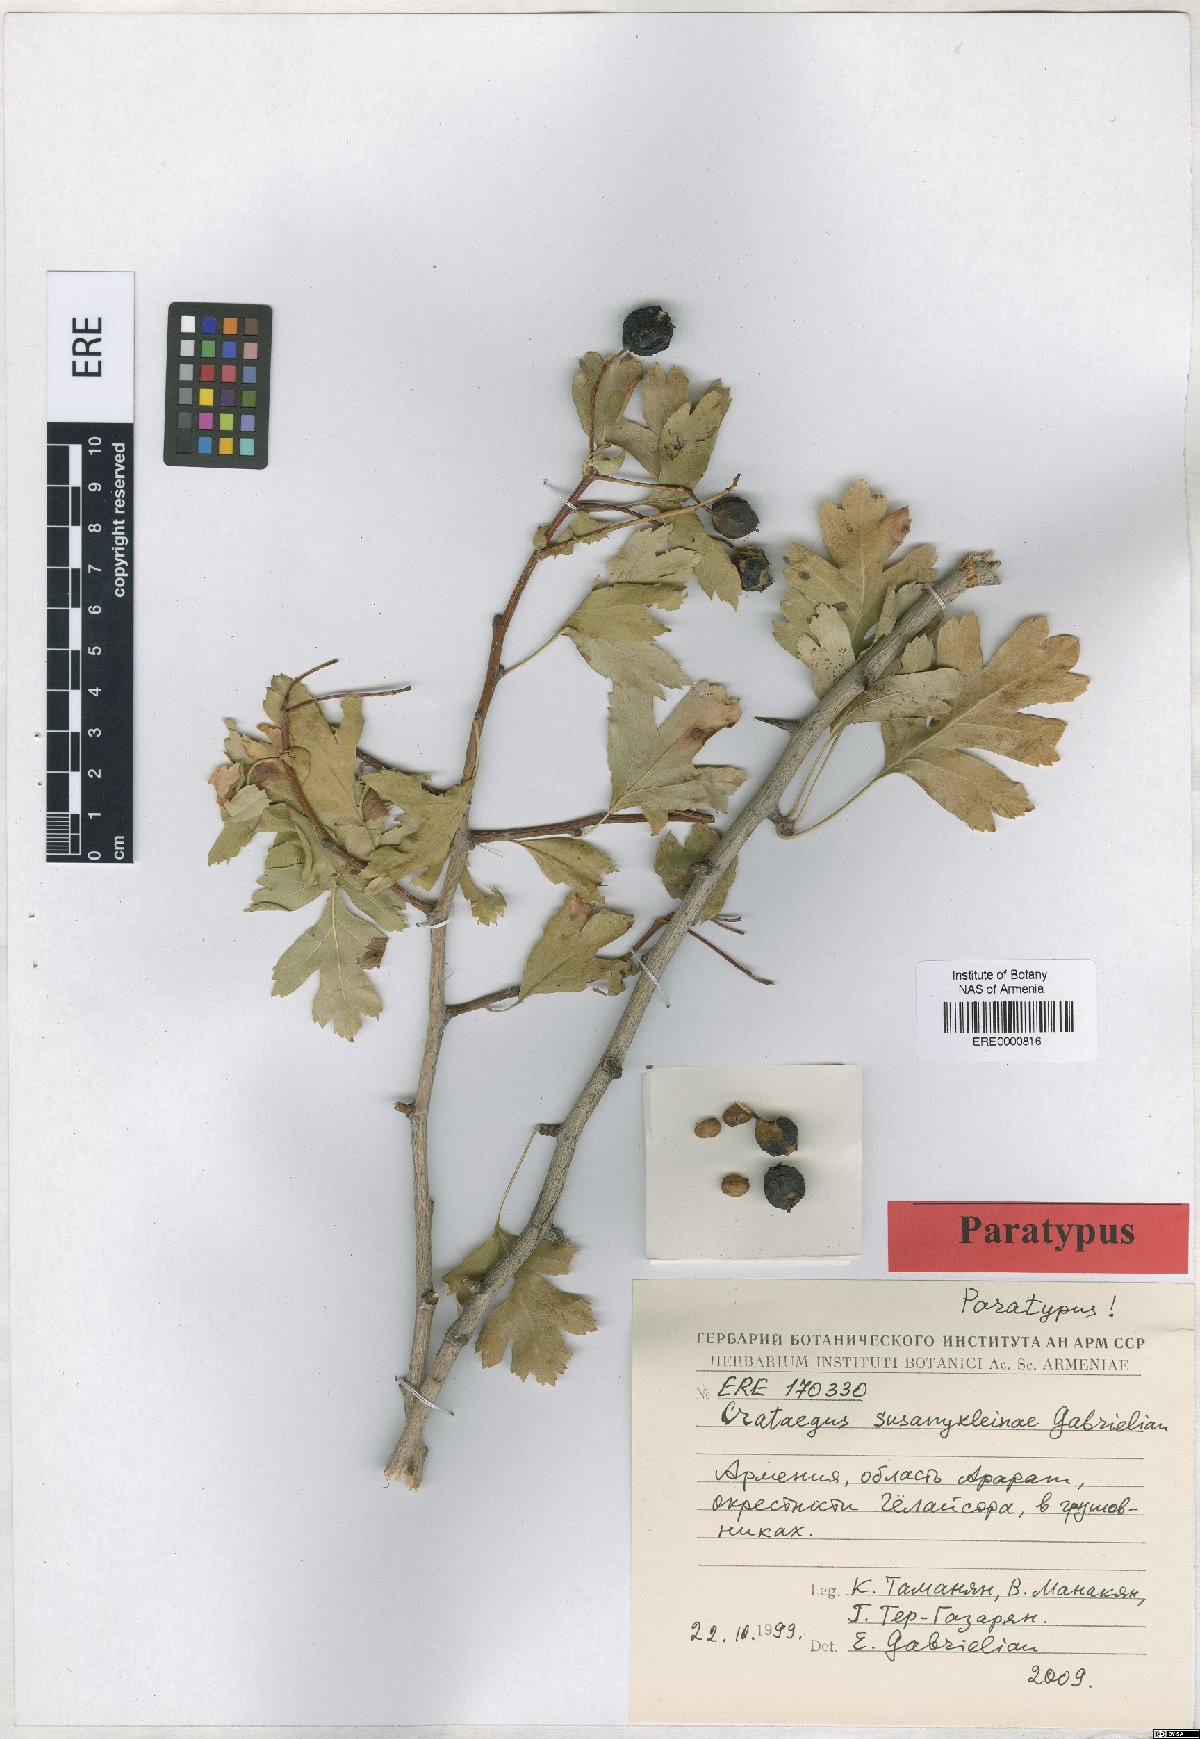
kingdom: Plantae
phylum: Tracheophyta
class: Magnoliopsida
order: Rosales
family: Rosaceae
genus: Crataegus
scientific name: Crataegus
